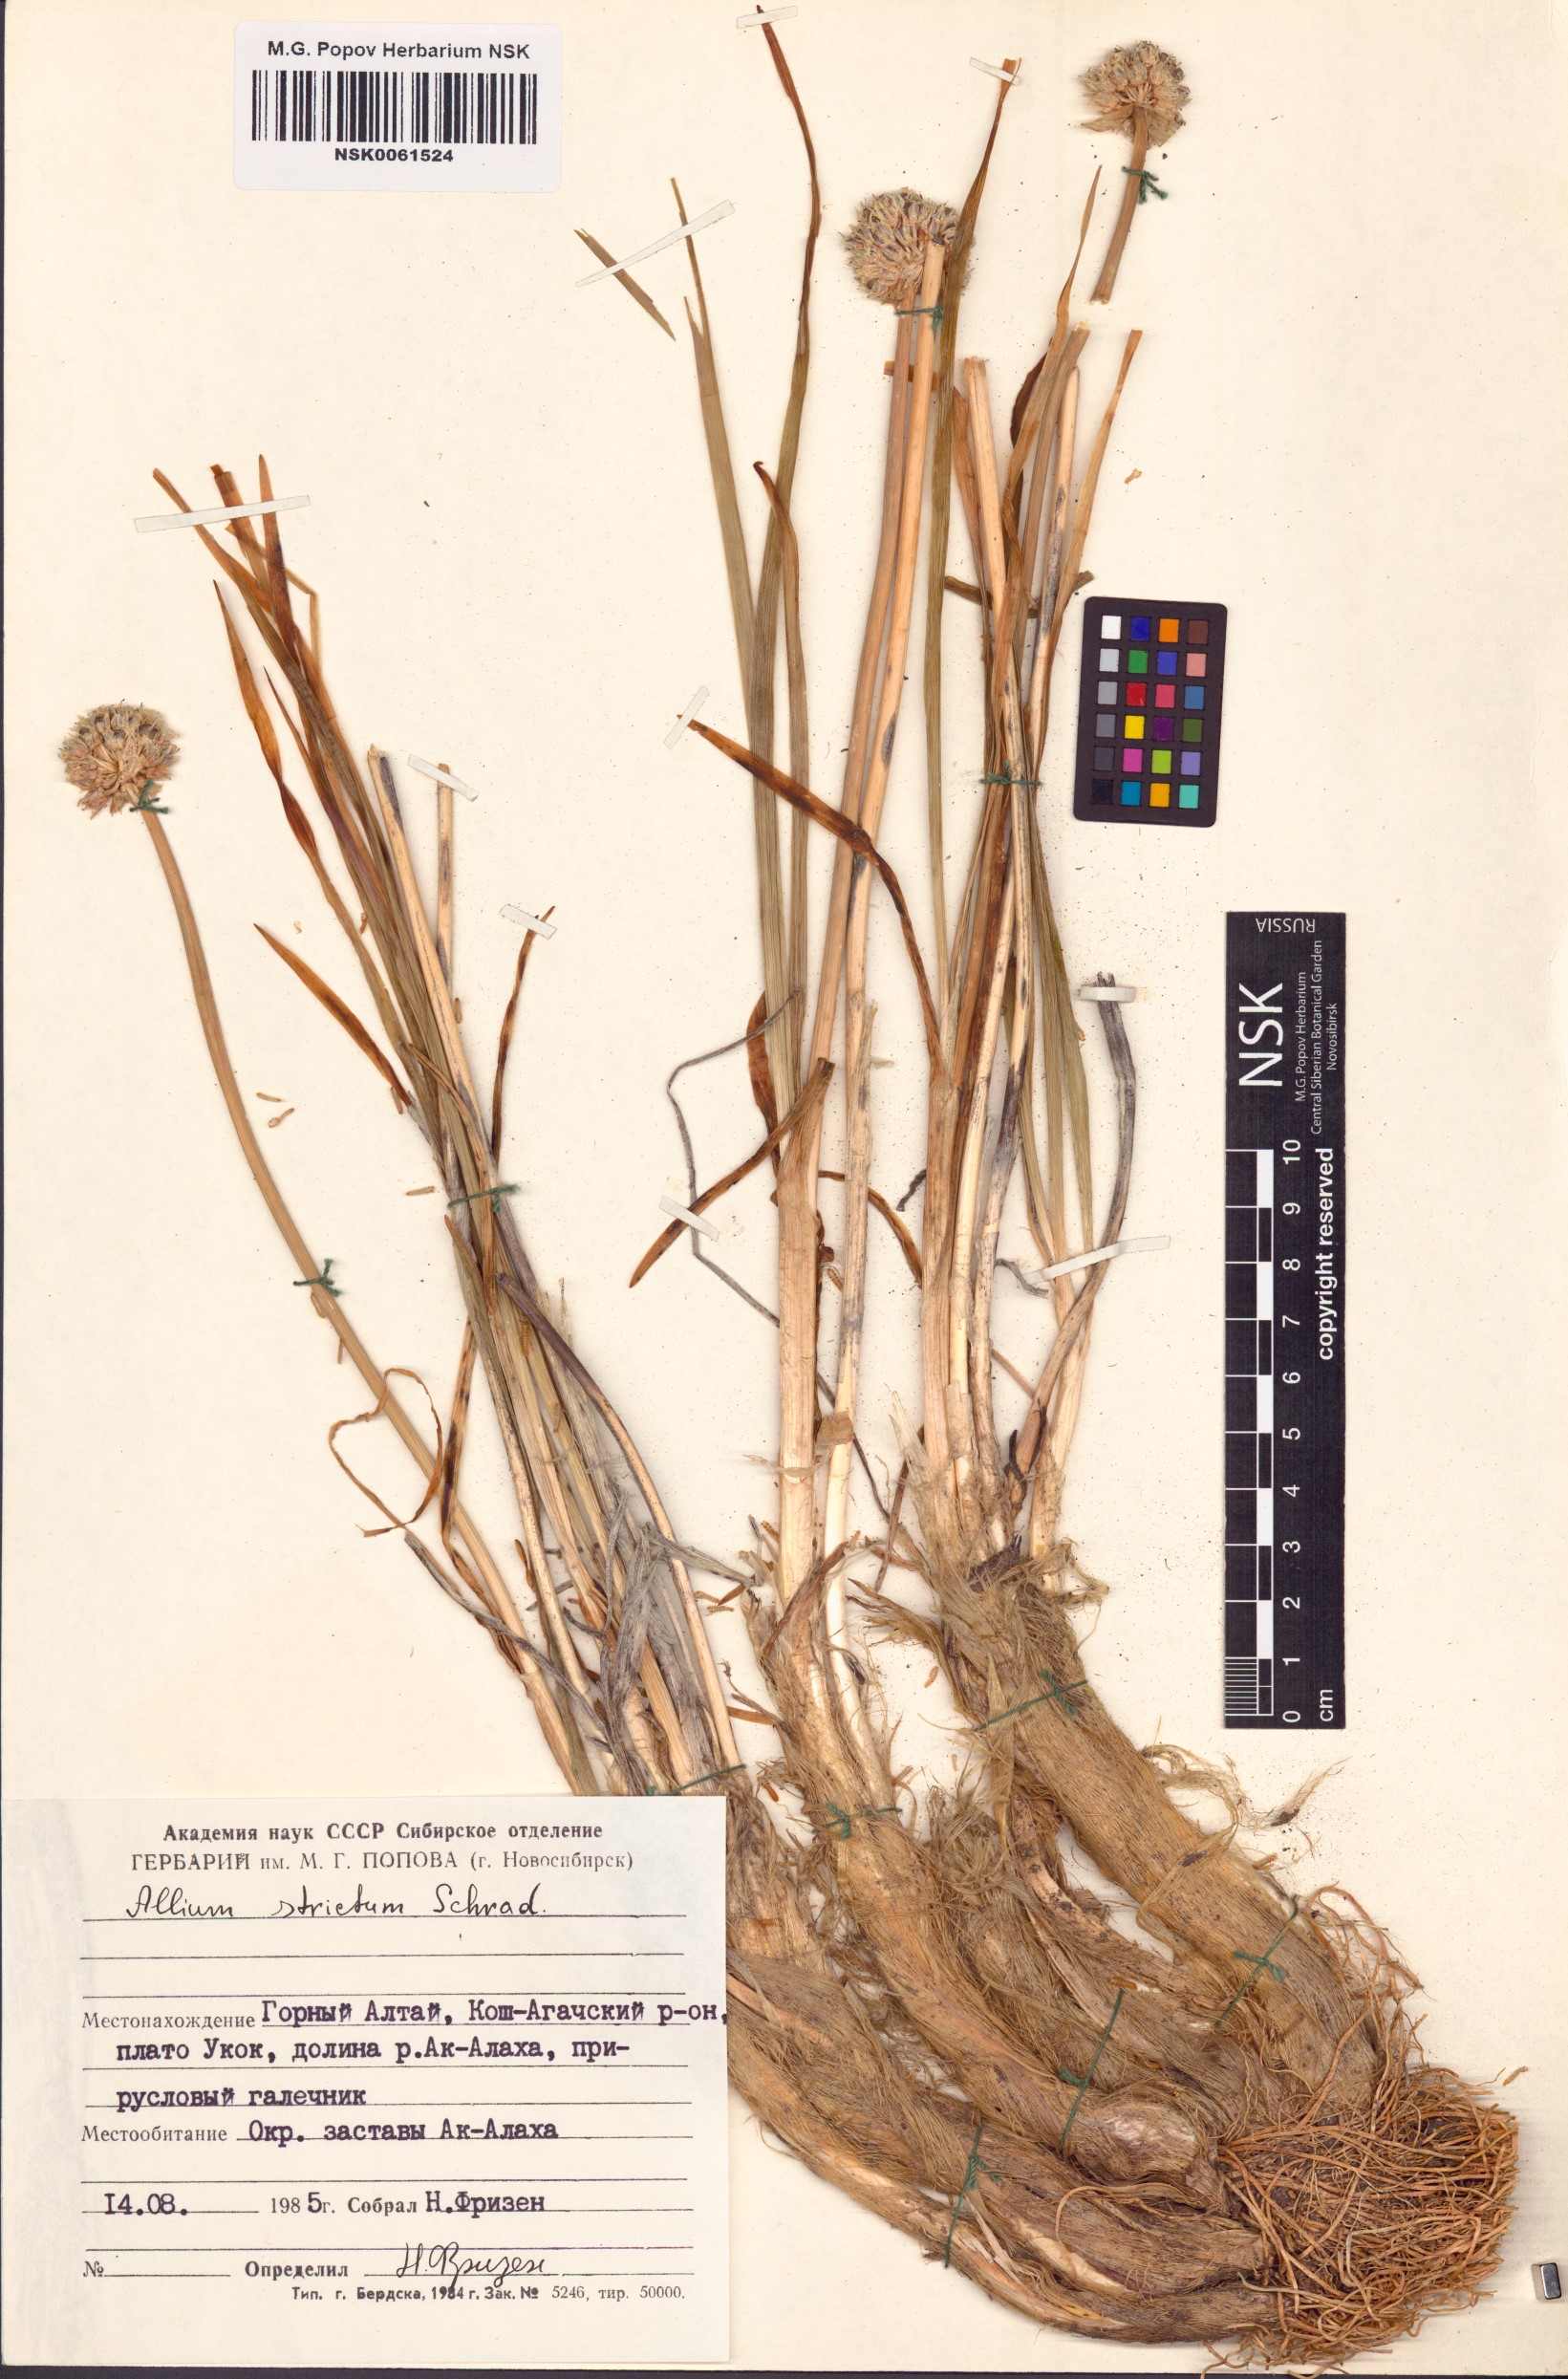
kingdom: Plantae
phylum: Tracheophyta
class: Liliopsida
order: Asparagales
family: Amaryllidaceae
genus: Allium
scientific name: Allium strictum
